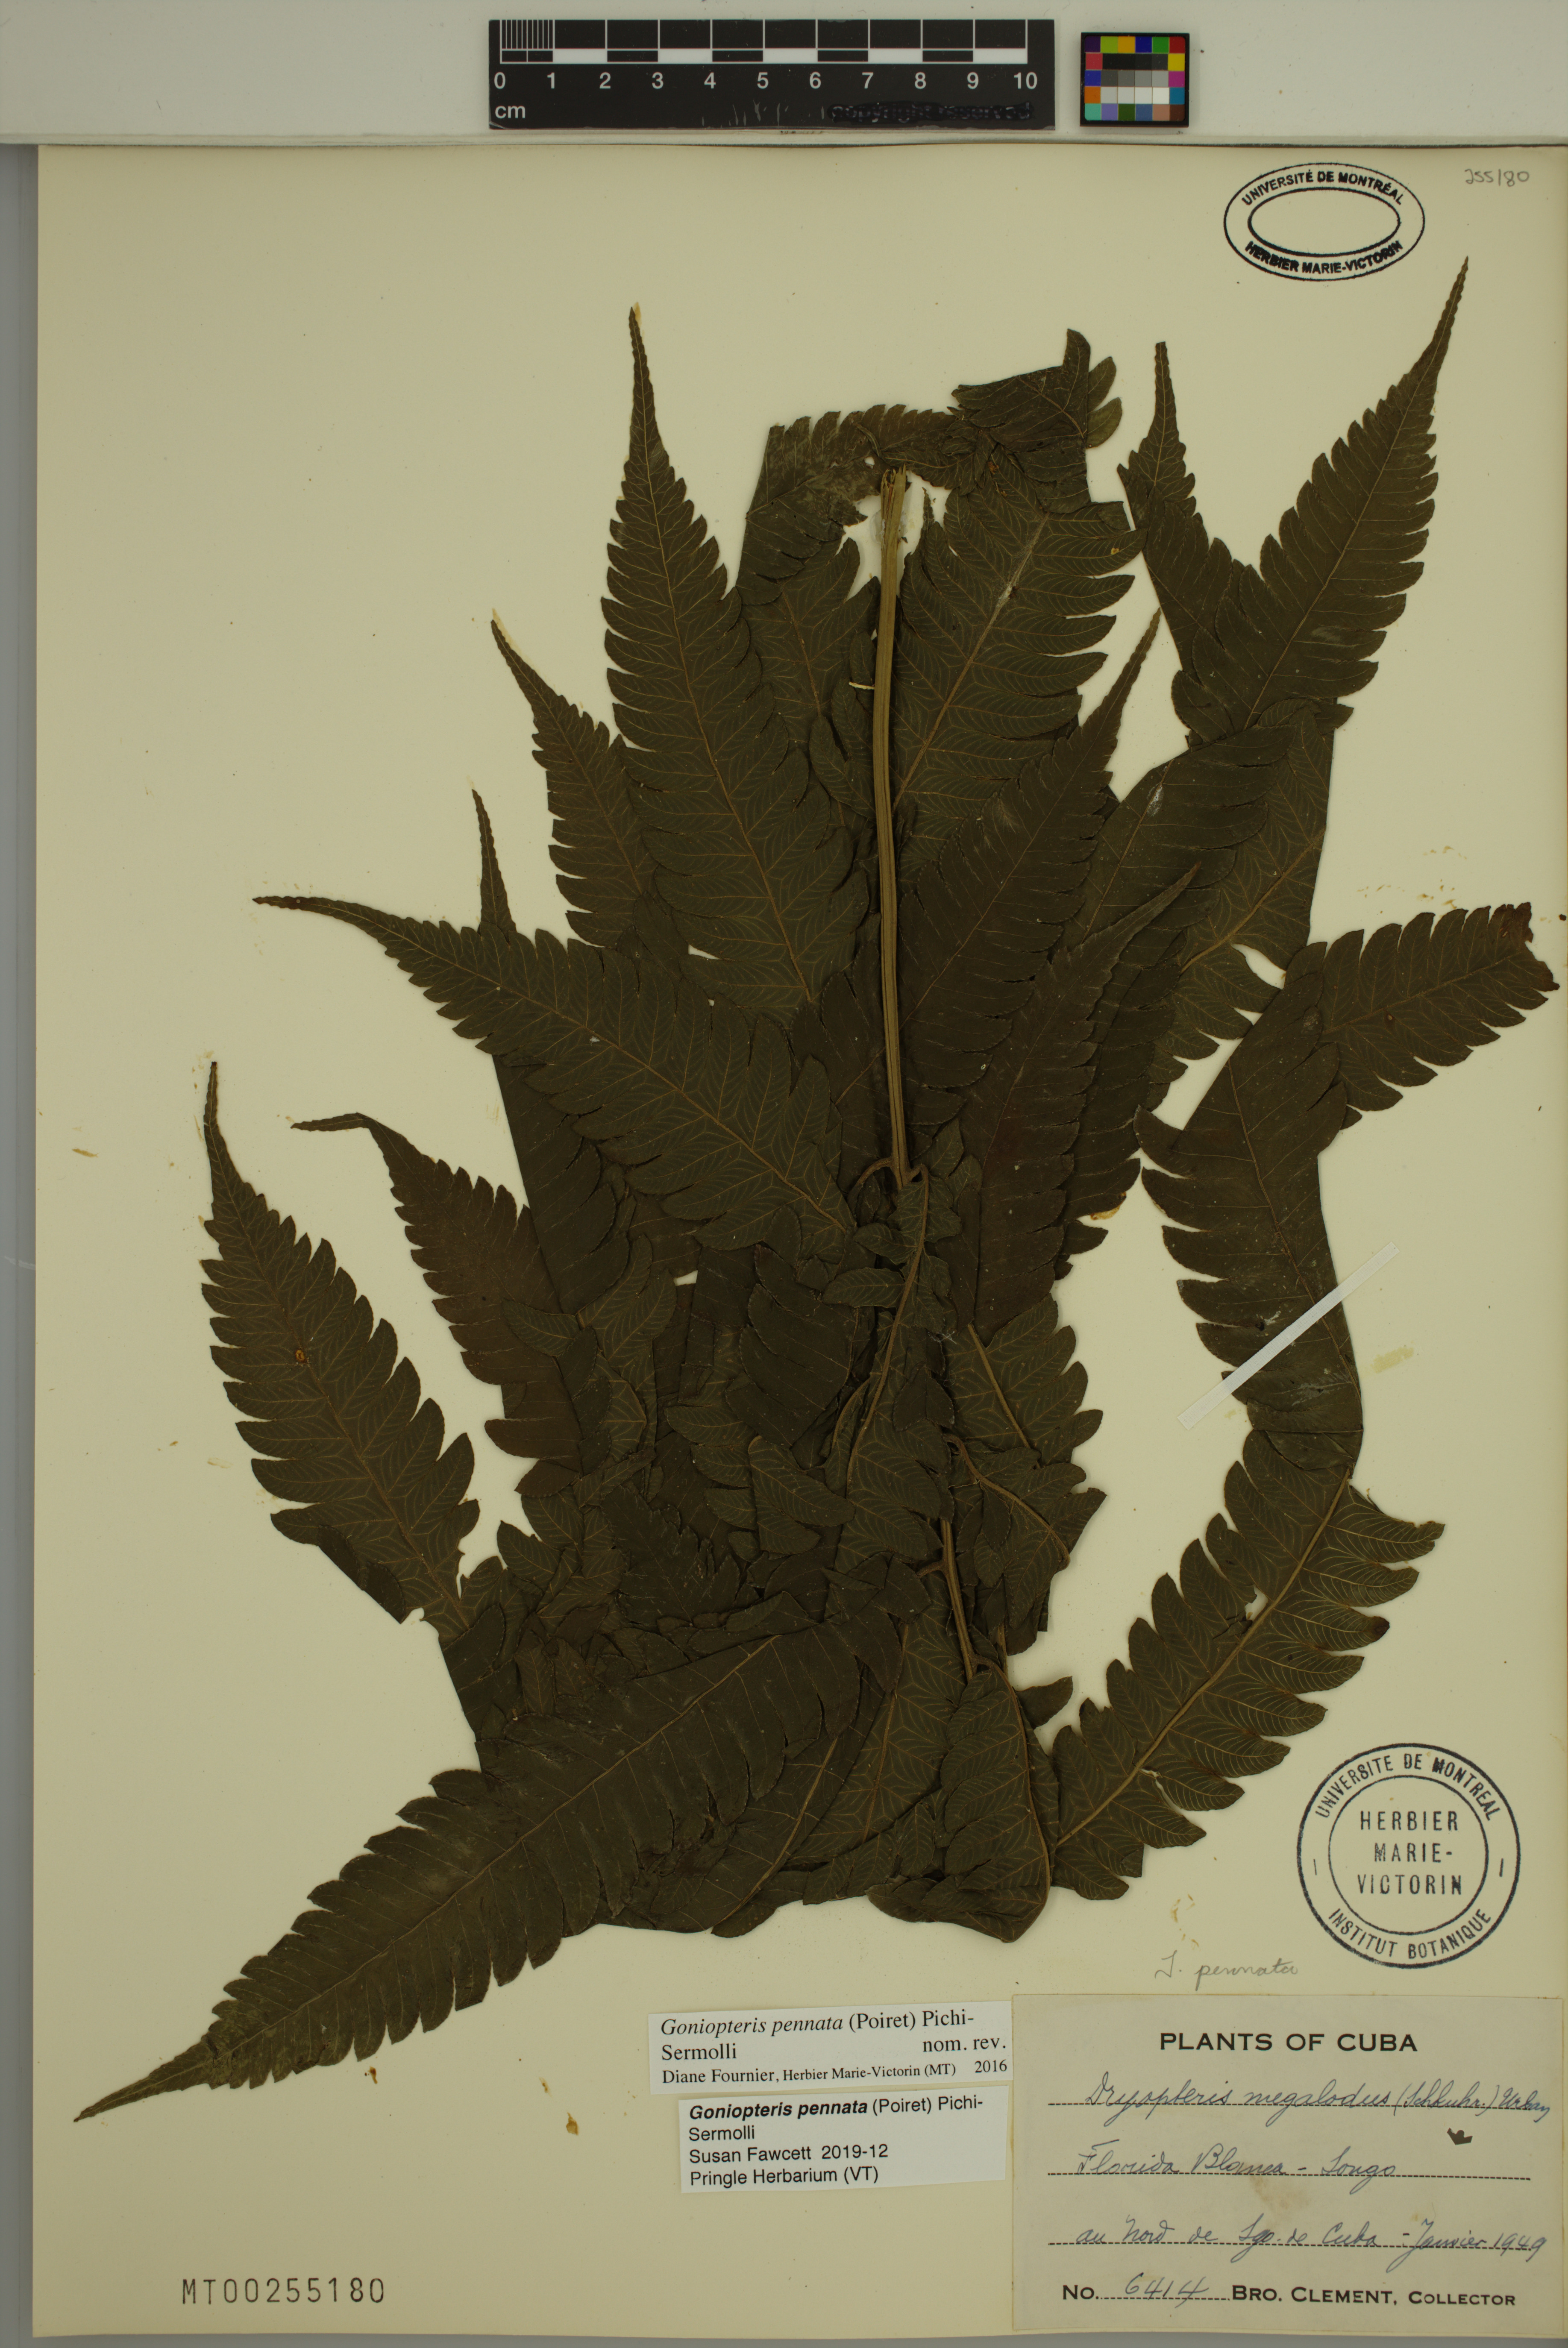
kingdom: Plantae
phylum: Tracheophyta
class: Polypodiopsida
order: Polypodiales
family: Thelypteridaceae
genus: Goniopteris
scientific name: Goniopteris pennata
